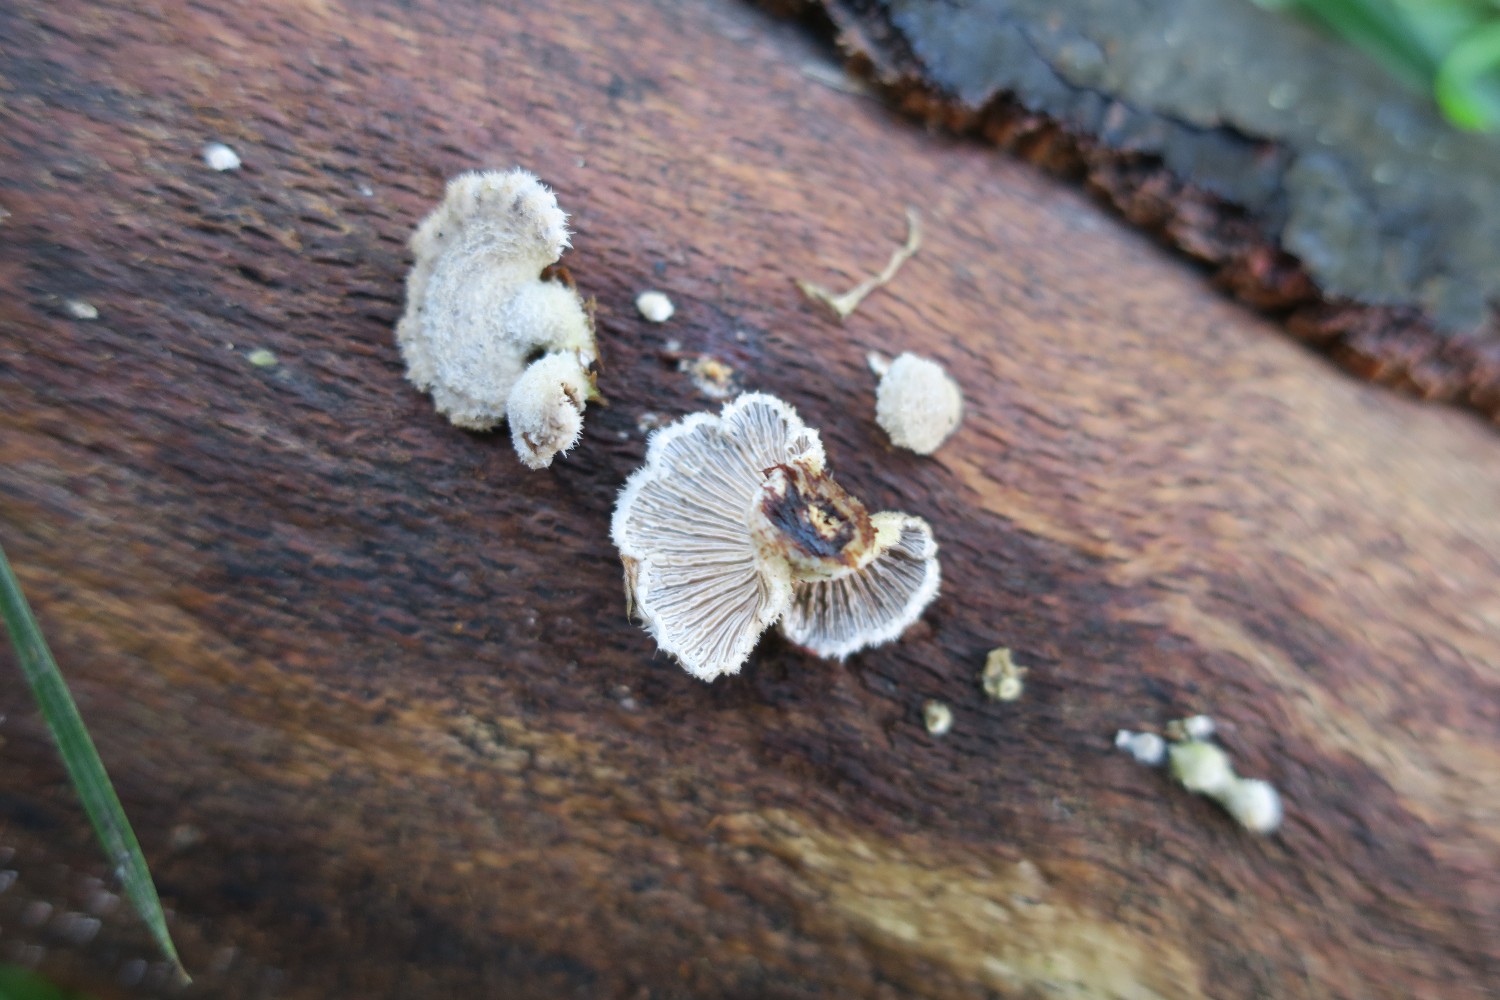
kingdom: Fungi
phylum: Basidiomycota
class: Agaricomycetes
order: Agaricales
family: Schizophyllaceae
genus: Schizophyllum
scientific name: Schizophyllum commune
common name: kløvblad
